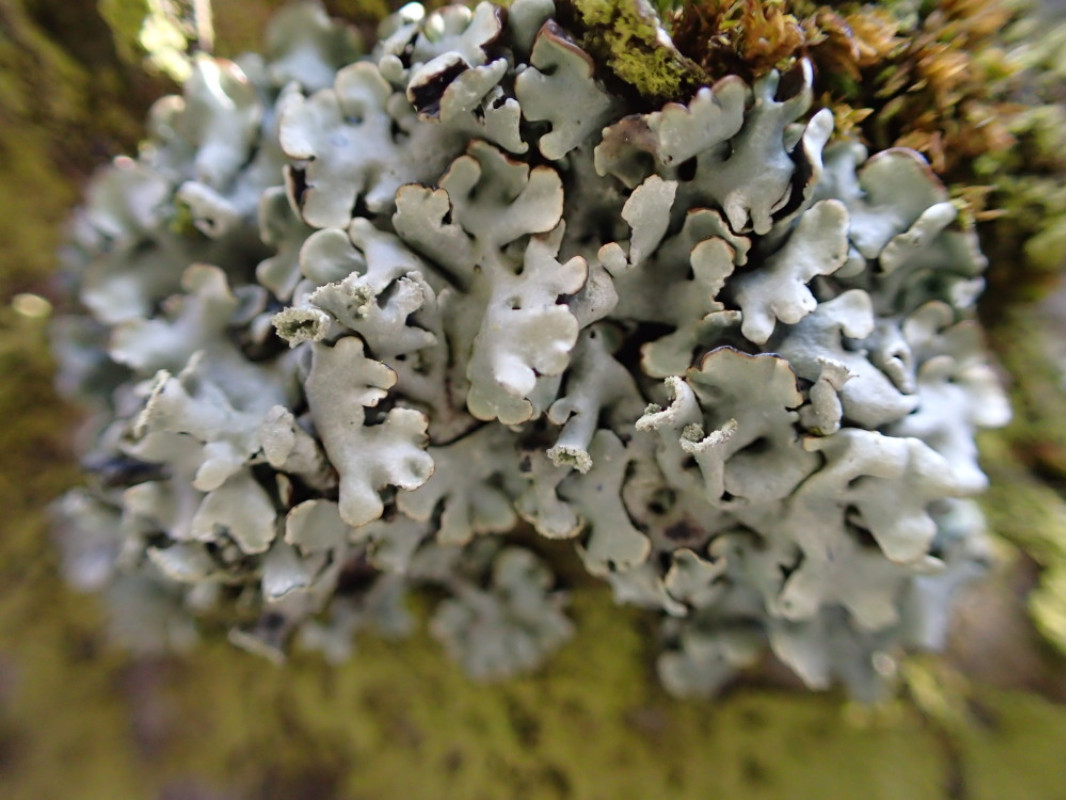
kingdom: Fungi
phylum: Ascomycota
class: Lecanoromycetes
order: Lecanorales
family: Parmeliaceae
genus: Hypogymnia
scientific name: Hypogymnia physodes
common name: almindelig kvistlav
